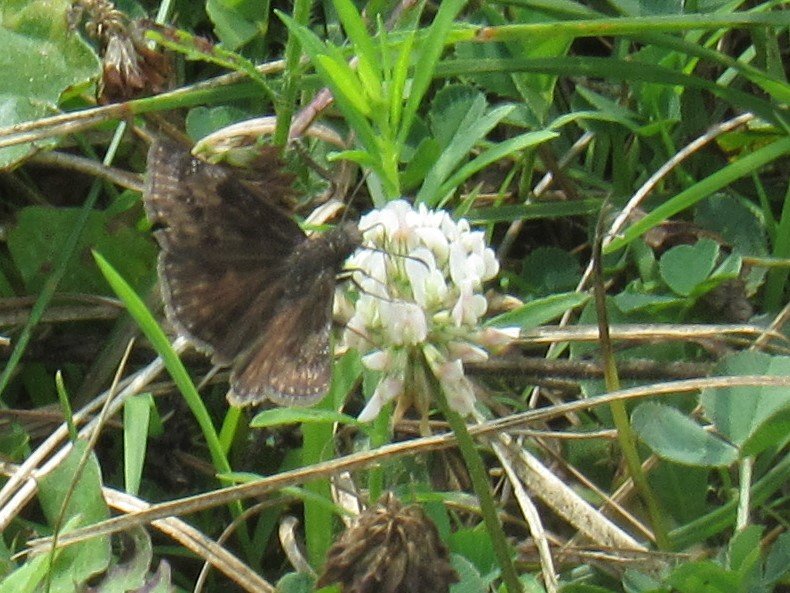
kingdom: Animalia
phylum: Arthropoda
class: Insecta
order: Lepidoptera
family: Hesperiidae
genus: Gesta
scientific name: Gesta
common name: Wild Indigo Duskywing
